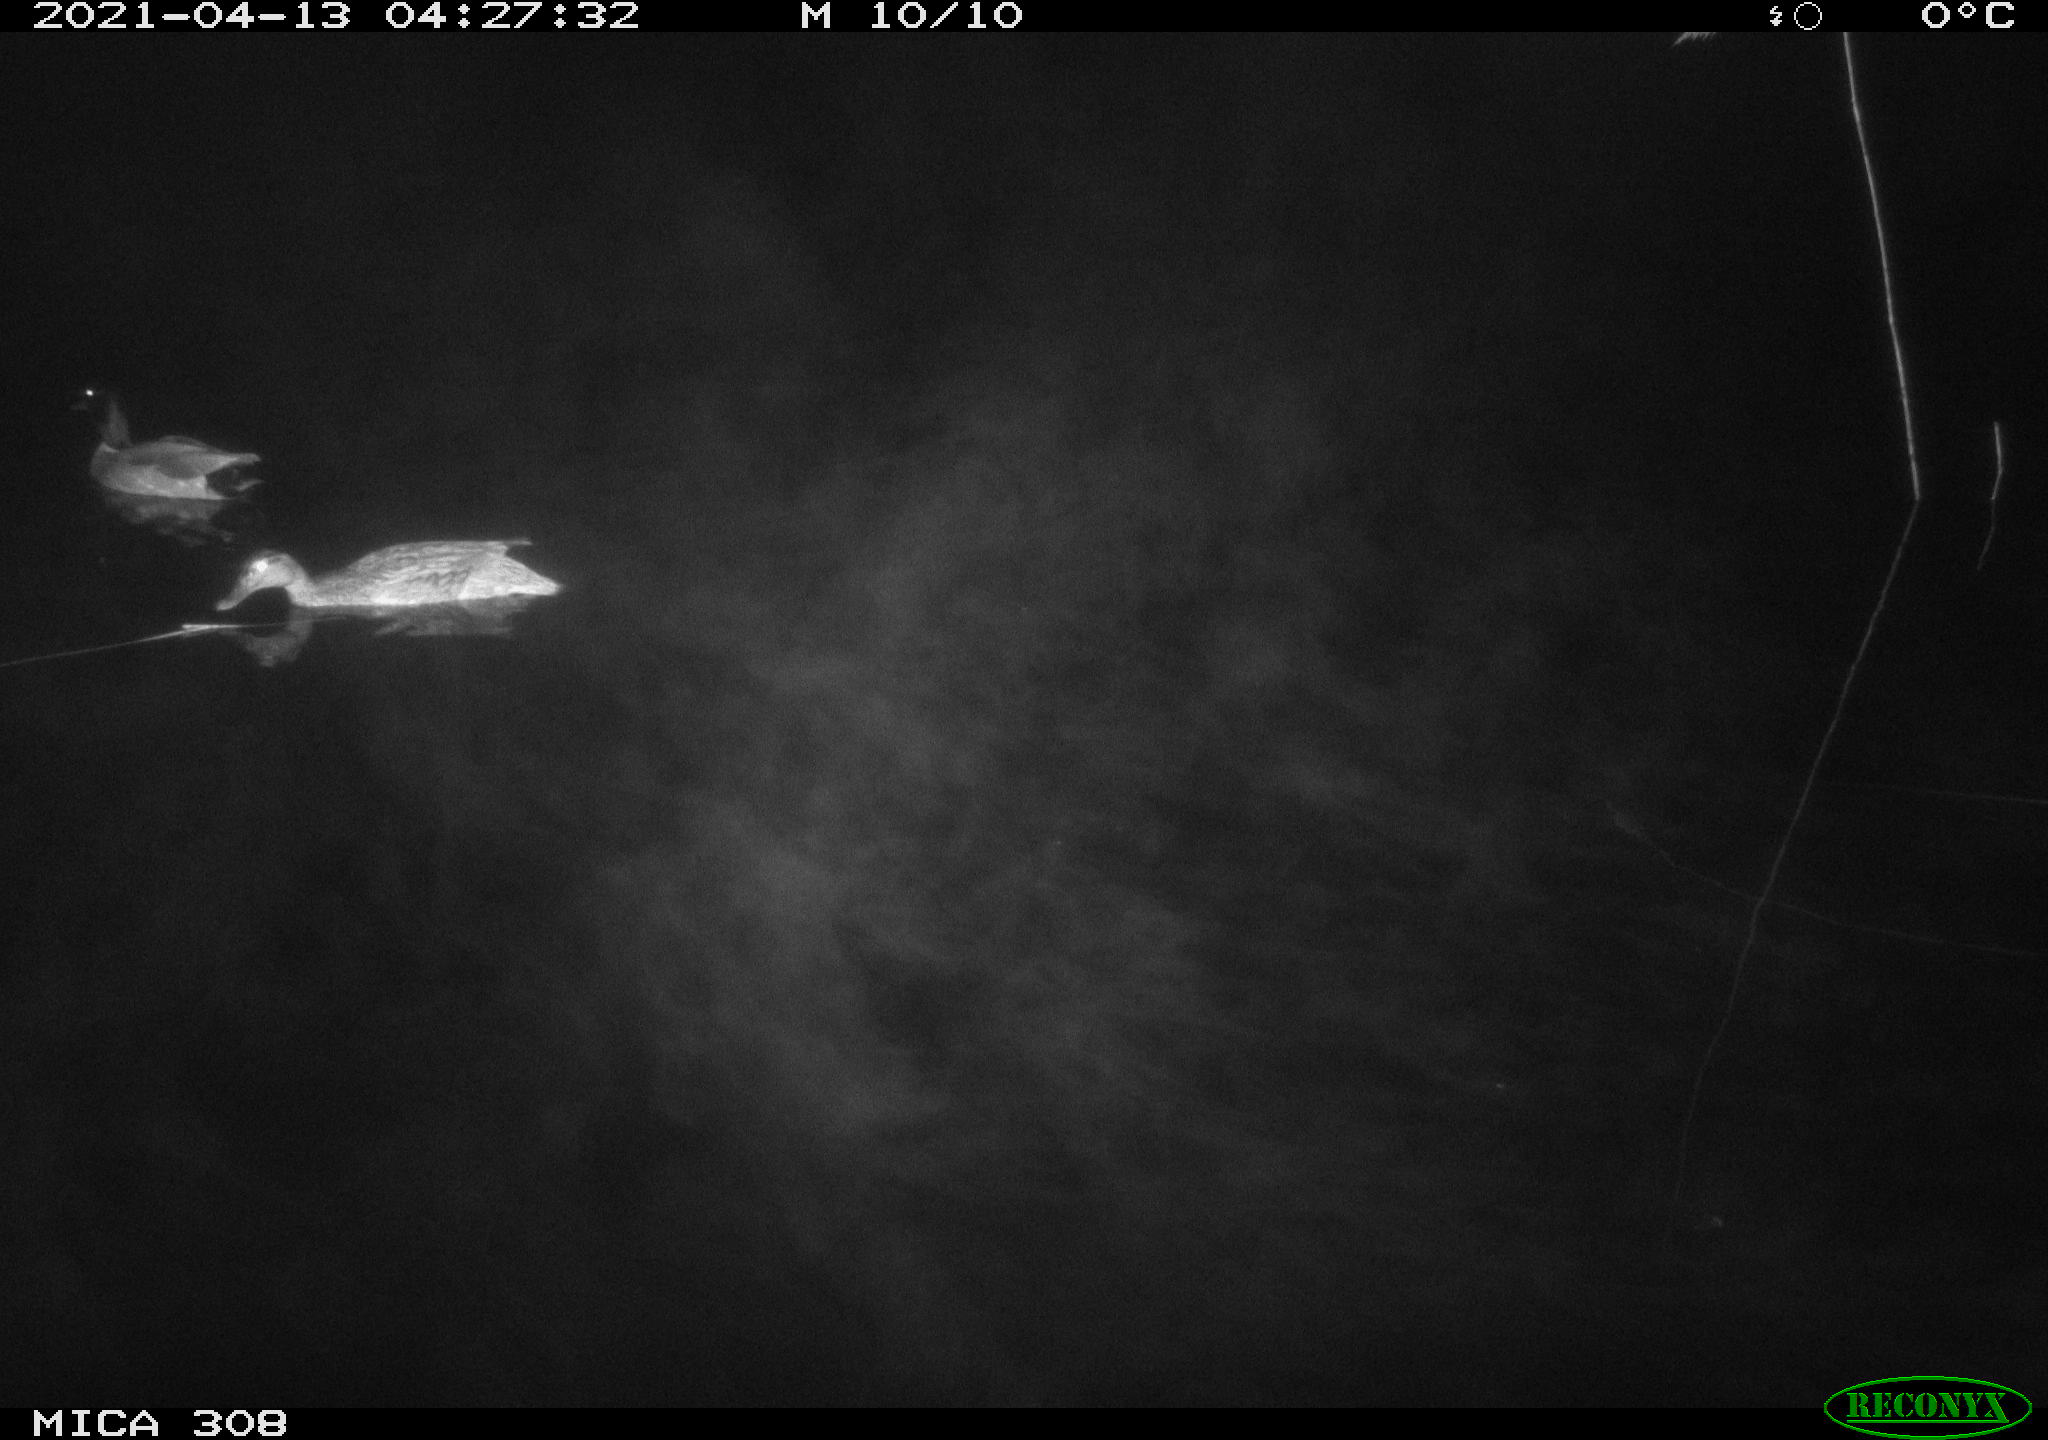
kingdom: Animalia
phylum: Chordata
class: Aves
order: Anseriformes
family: Anatidae
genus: Anas
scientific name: Anas platyrhynchos
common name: Mallard
